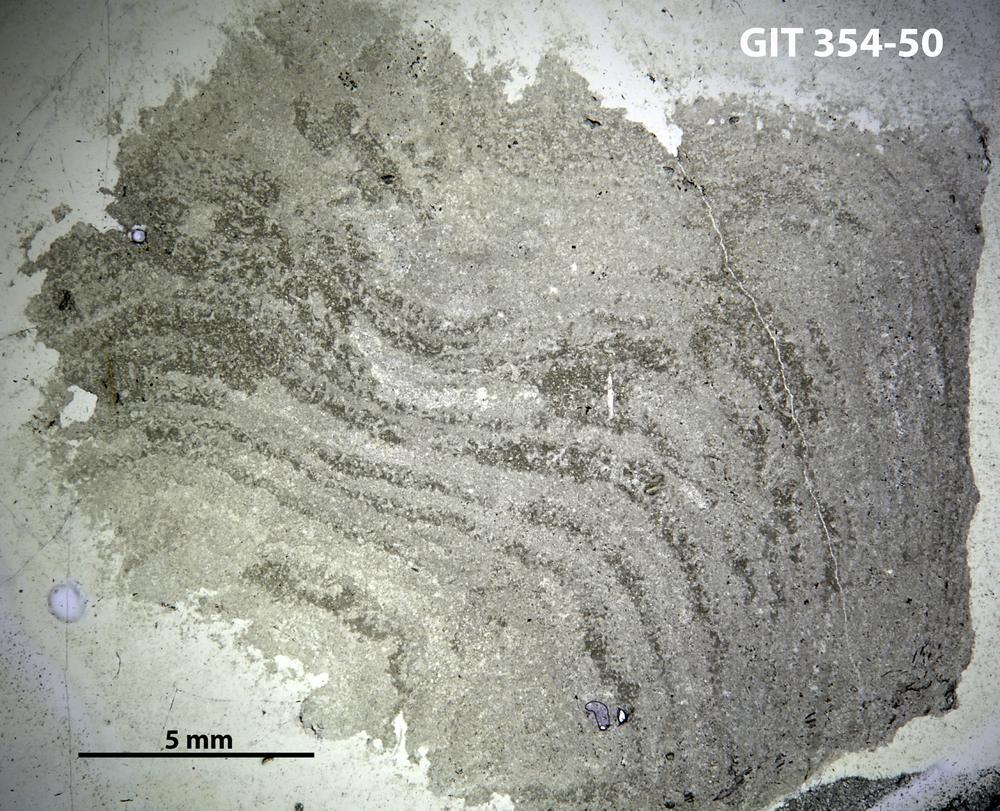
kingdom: Animalia
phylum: Porifera
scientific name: Porifera
